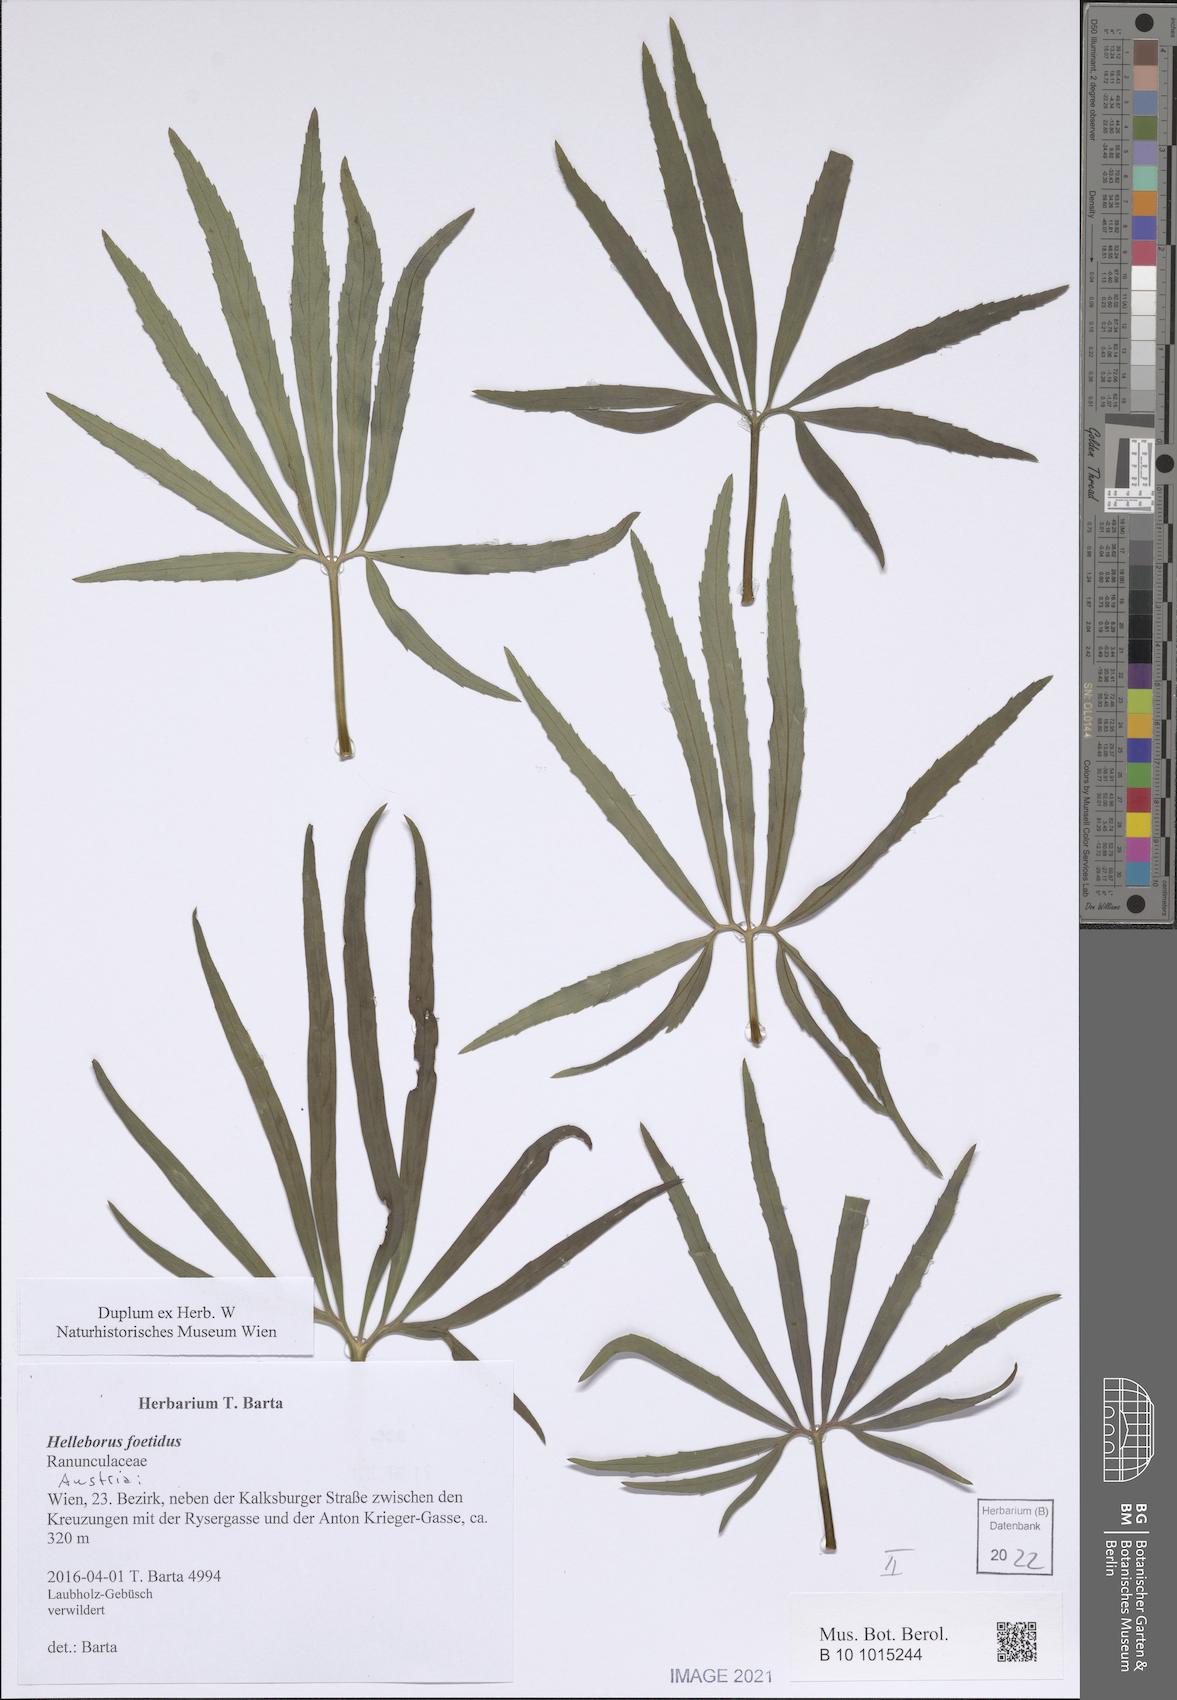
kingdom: Plantae
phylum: Tracheophyta
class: Magnoliopsida
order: Ranunculales
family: Ranunculaceae
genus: Helleborus
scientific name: Helleborus foetidus
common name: Stinking hellebore
